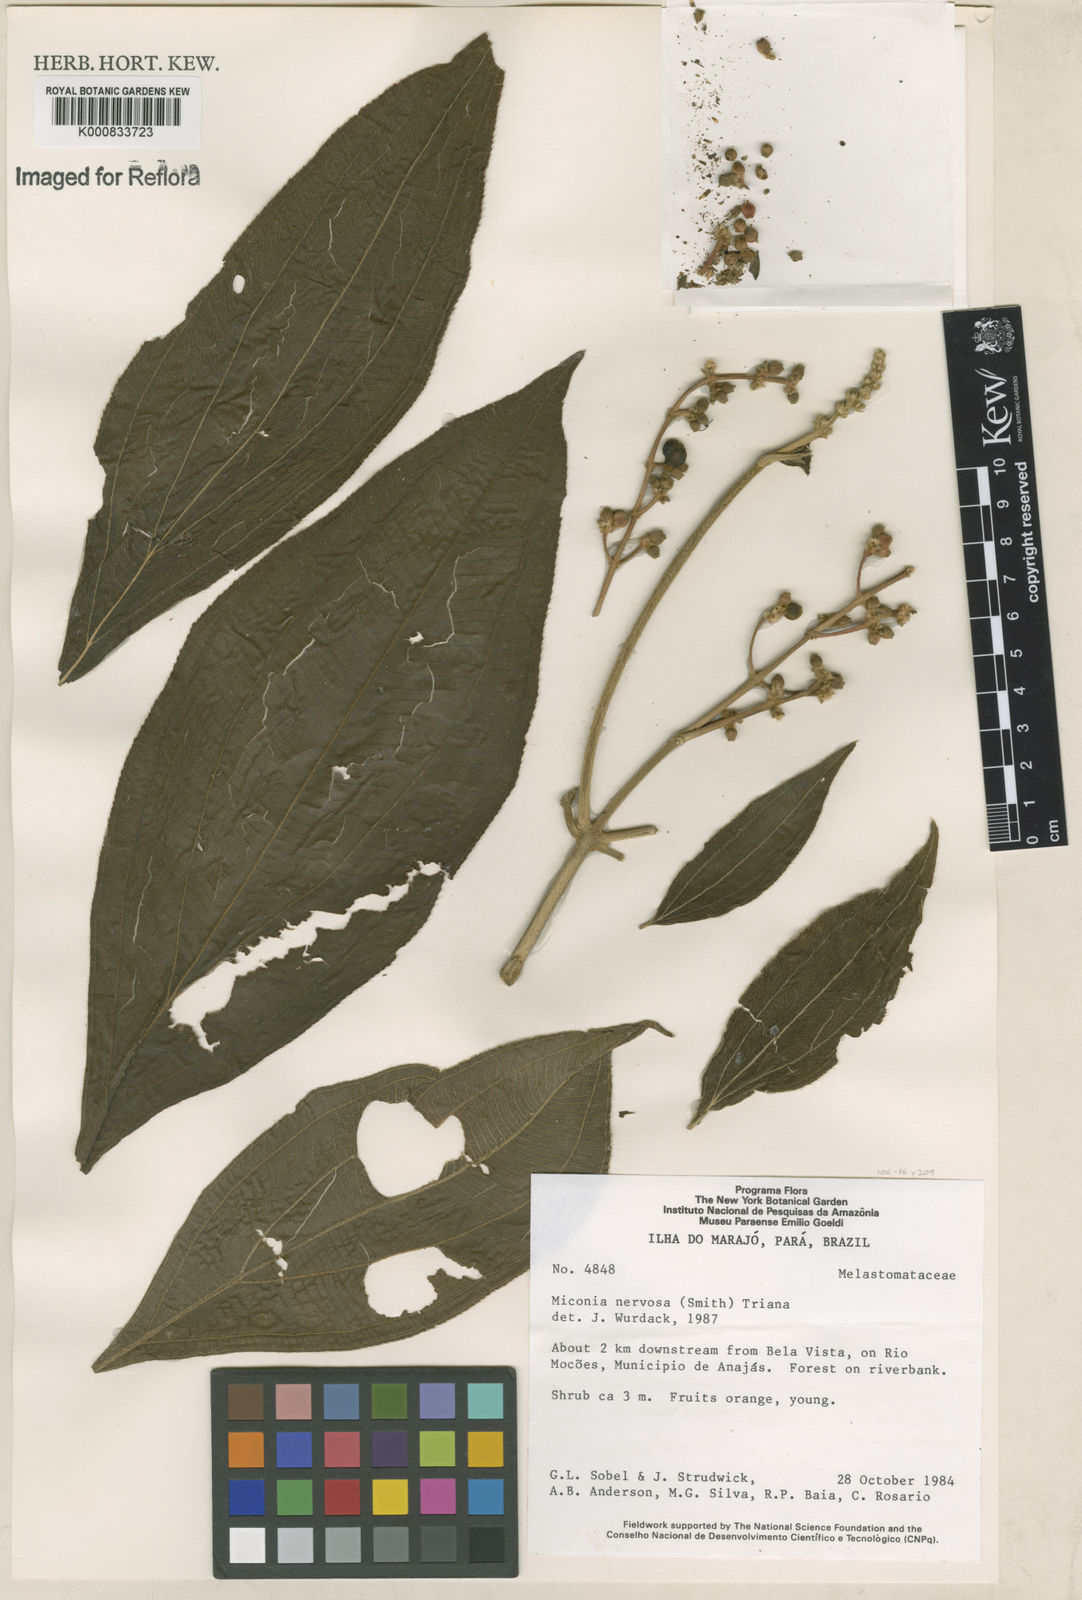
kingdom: Plantae
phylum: Tracheophyta
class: Magnoliopsida
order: Myrtales
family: Melastomataceae
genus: Miconia
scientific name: Miconia nervosa
